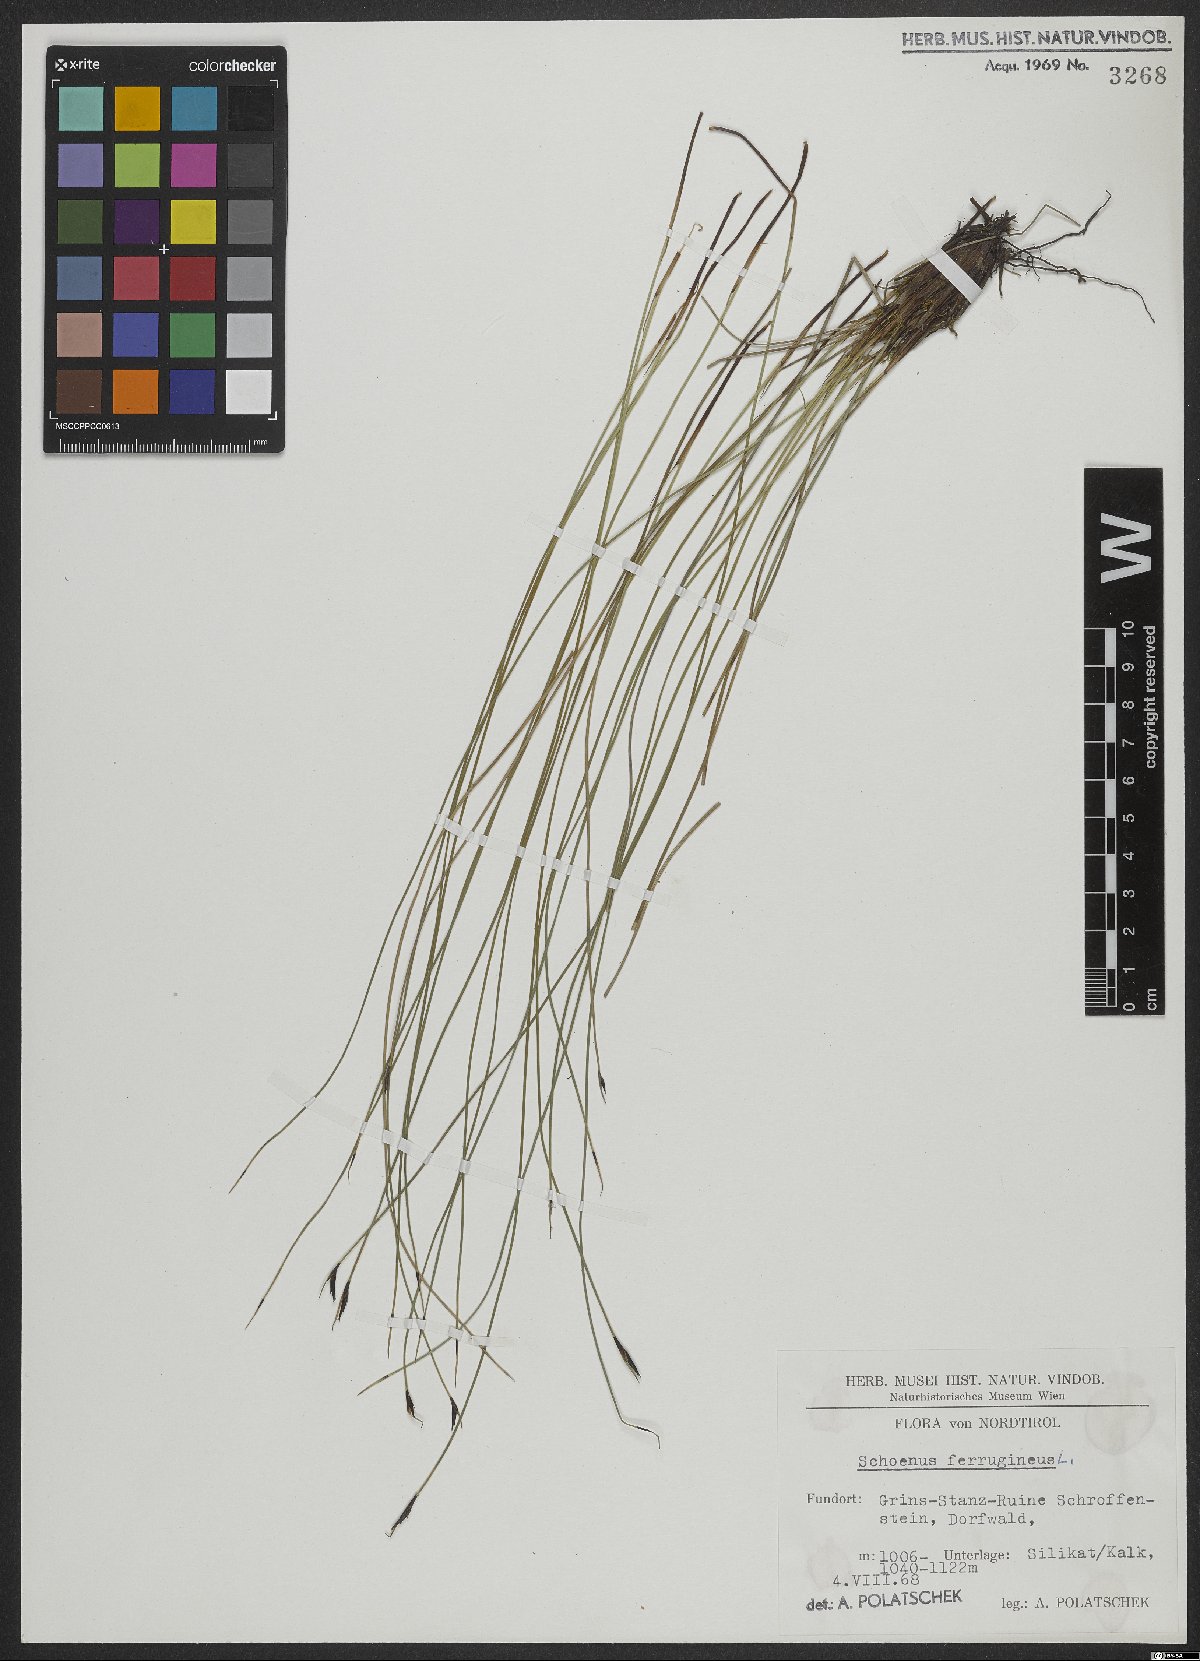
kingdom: Plantae
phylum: Tracheophyta
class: Liliopsida
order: Poales
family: Cyperaceae
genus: Schoenus
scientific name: Schoenus ferrugineus
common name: Brown bog-rush
